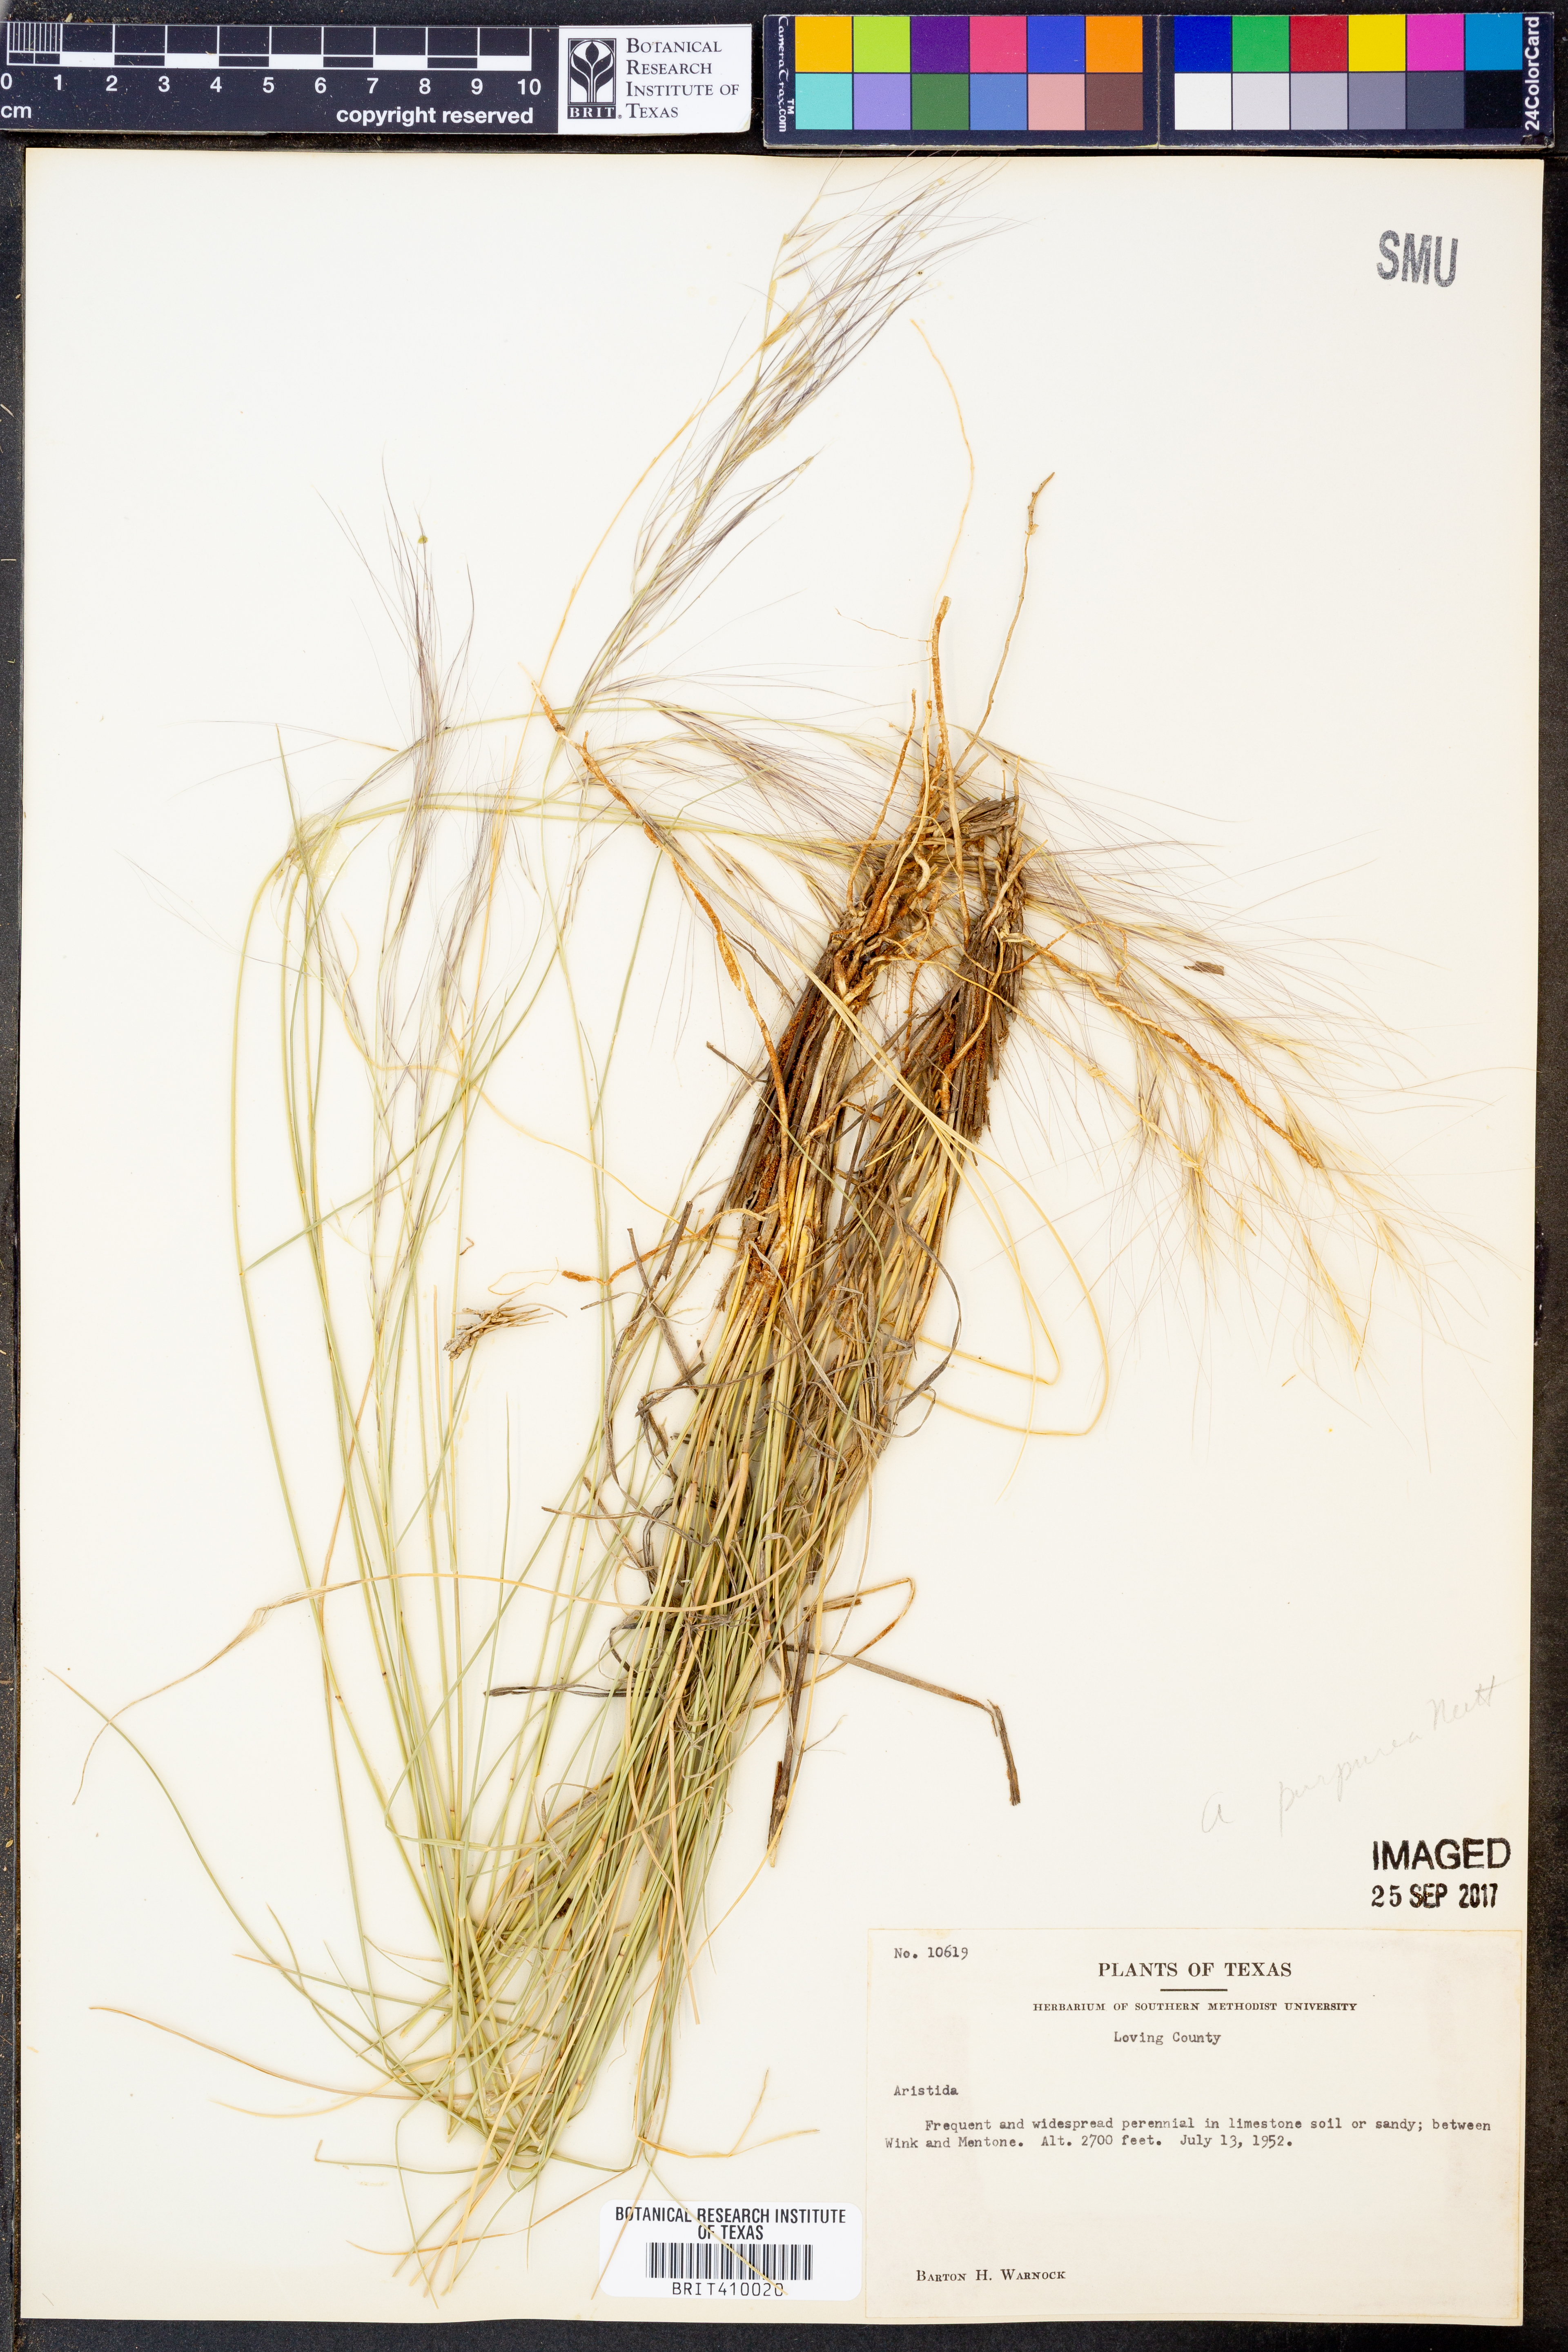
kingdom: Plantae
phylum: Tracheophyta
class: Liliopsida
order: Poales
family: Poaceae
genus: Aristida
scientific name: Aristida
